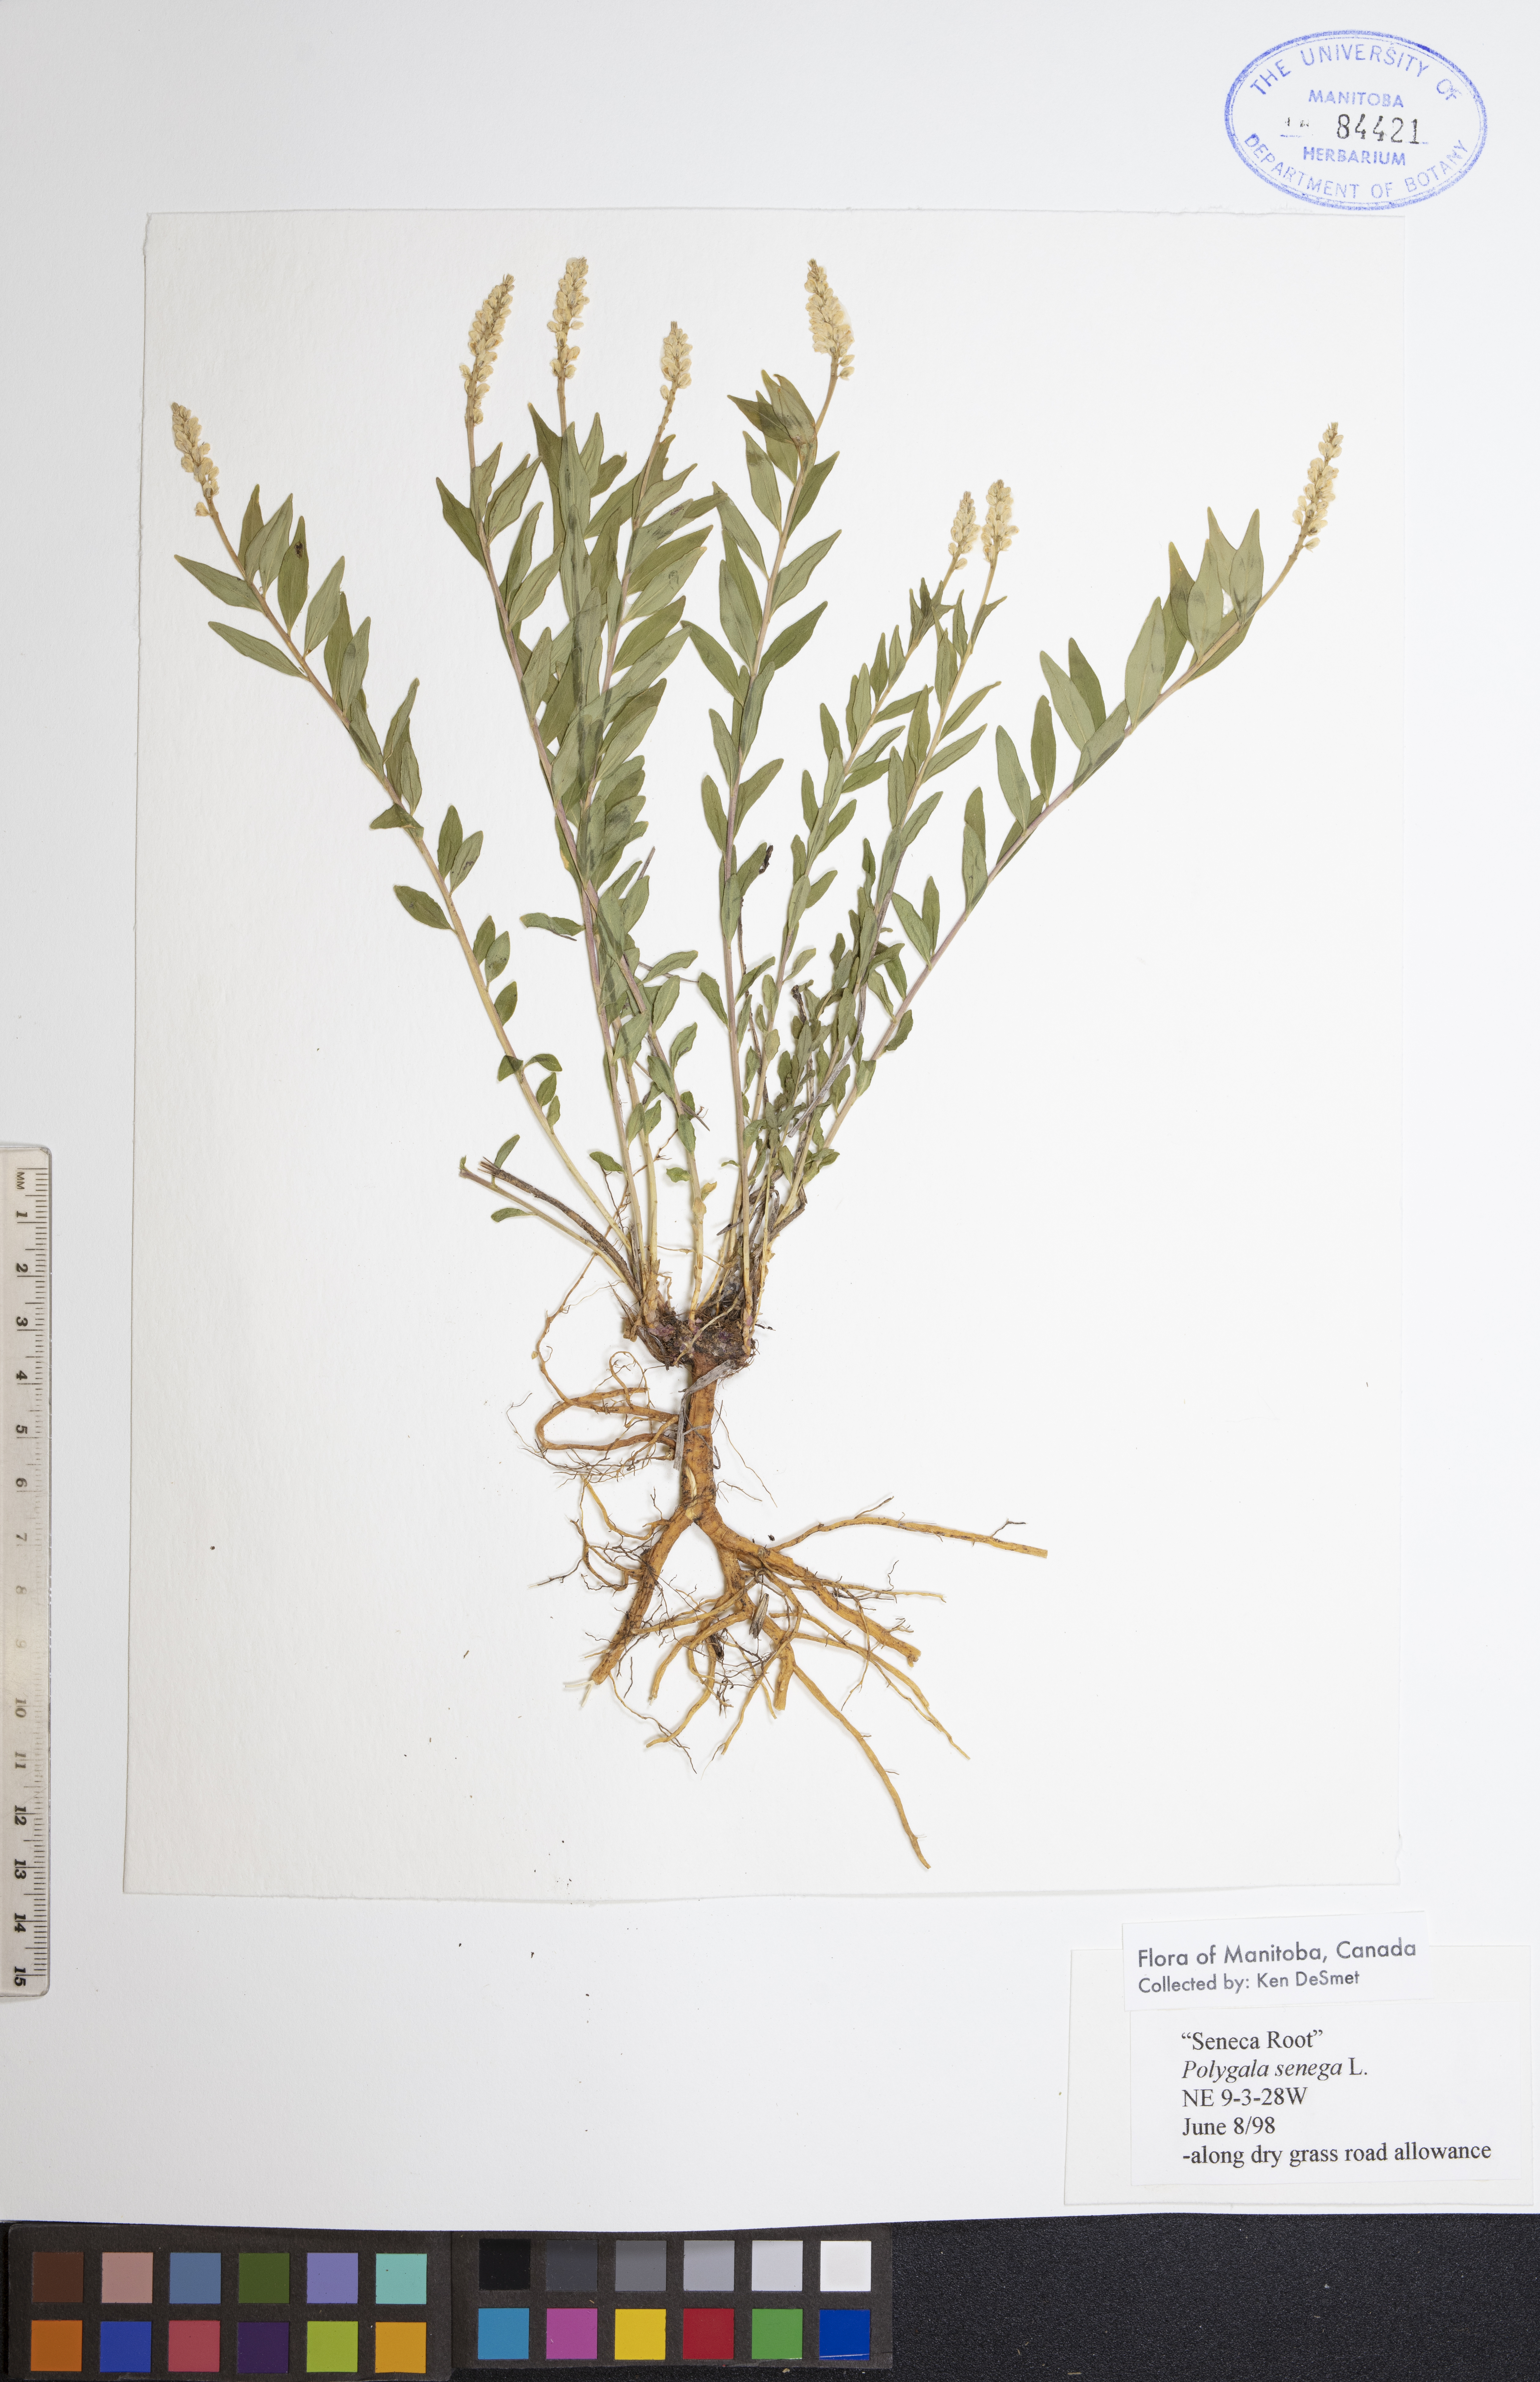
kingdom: Plantae
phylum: Tracheophyta
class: Magnoliopsida
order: Fabales
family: Polygalaceae
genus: Polygala
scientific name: Polygala senega
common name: Seneca snakeroot
